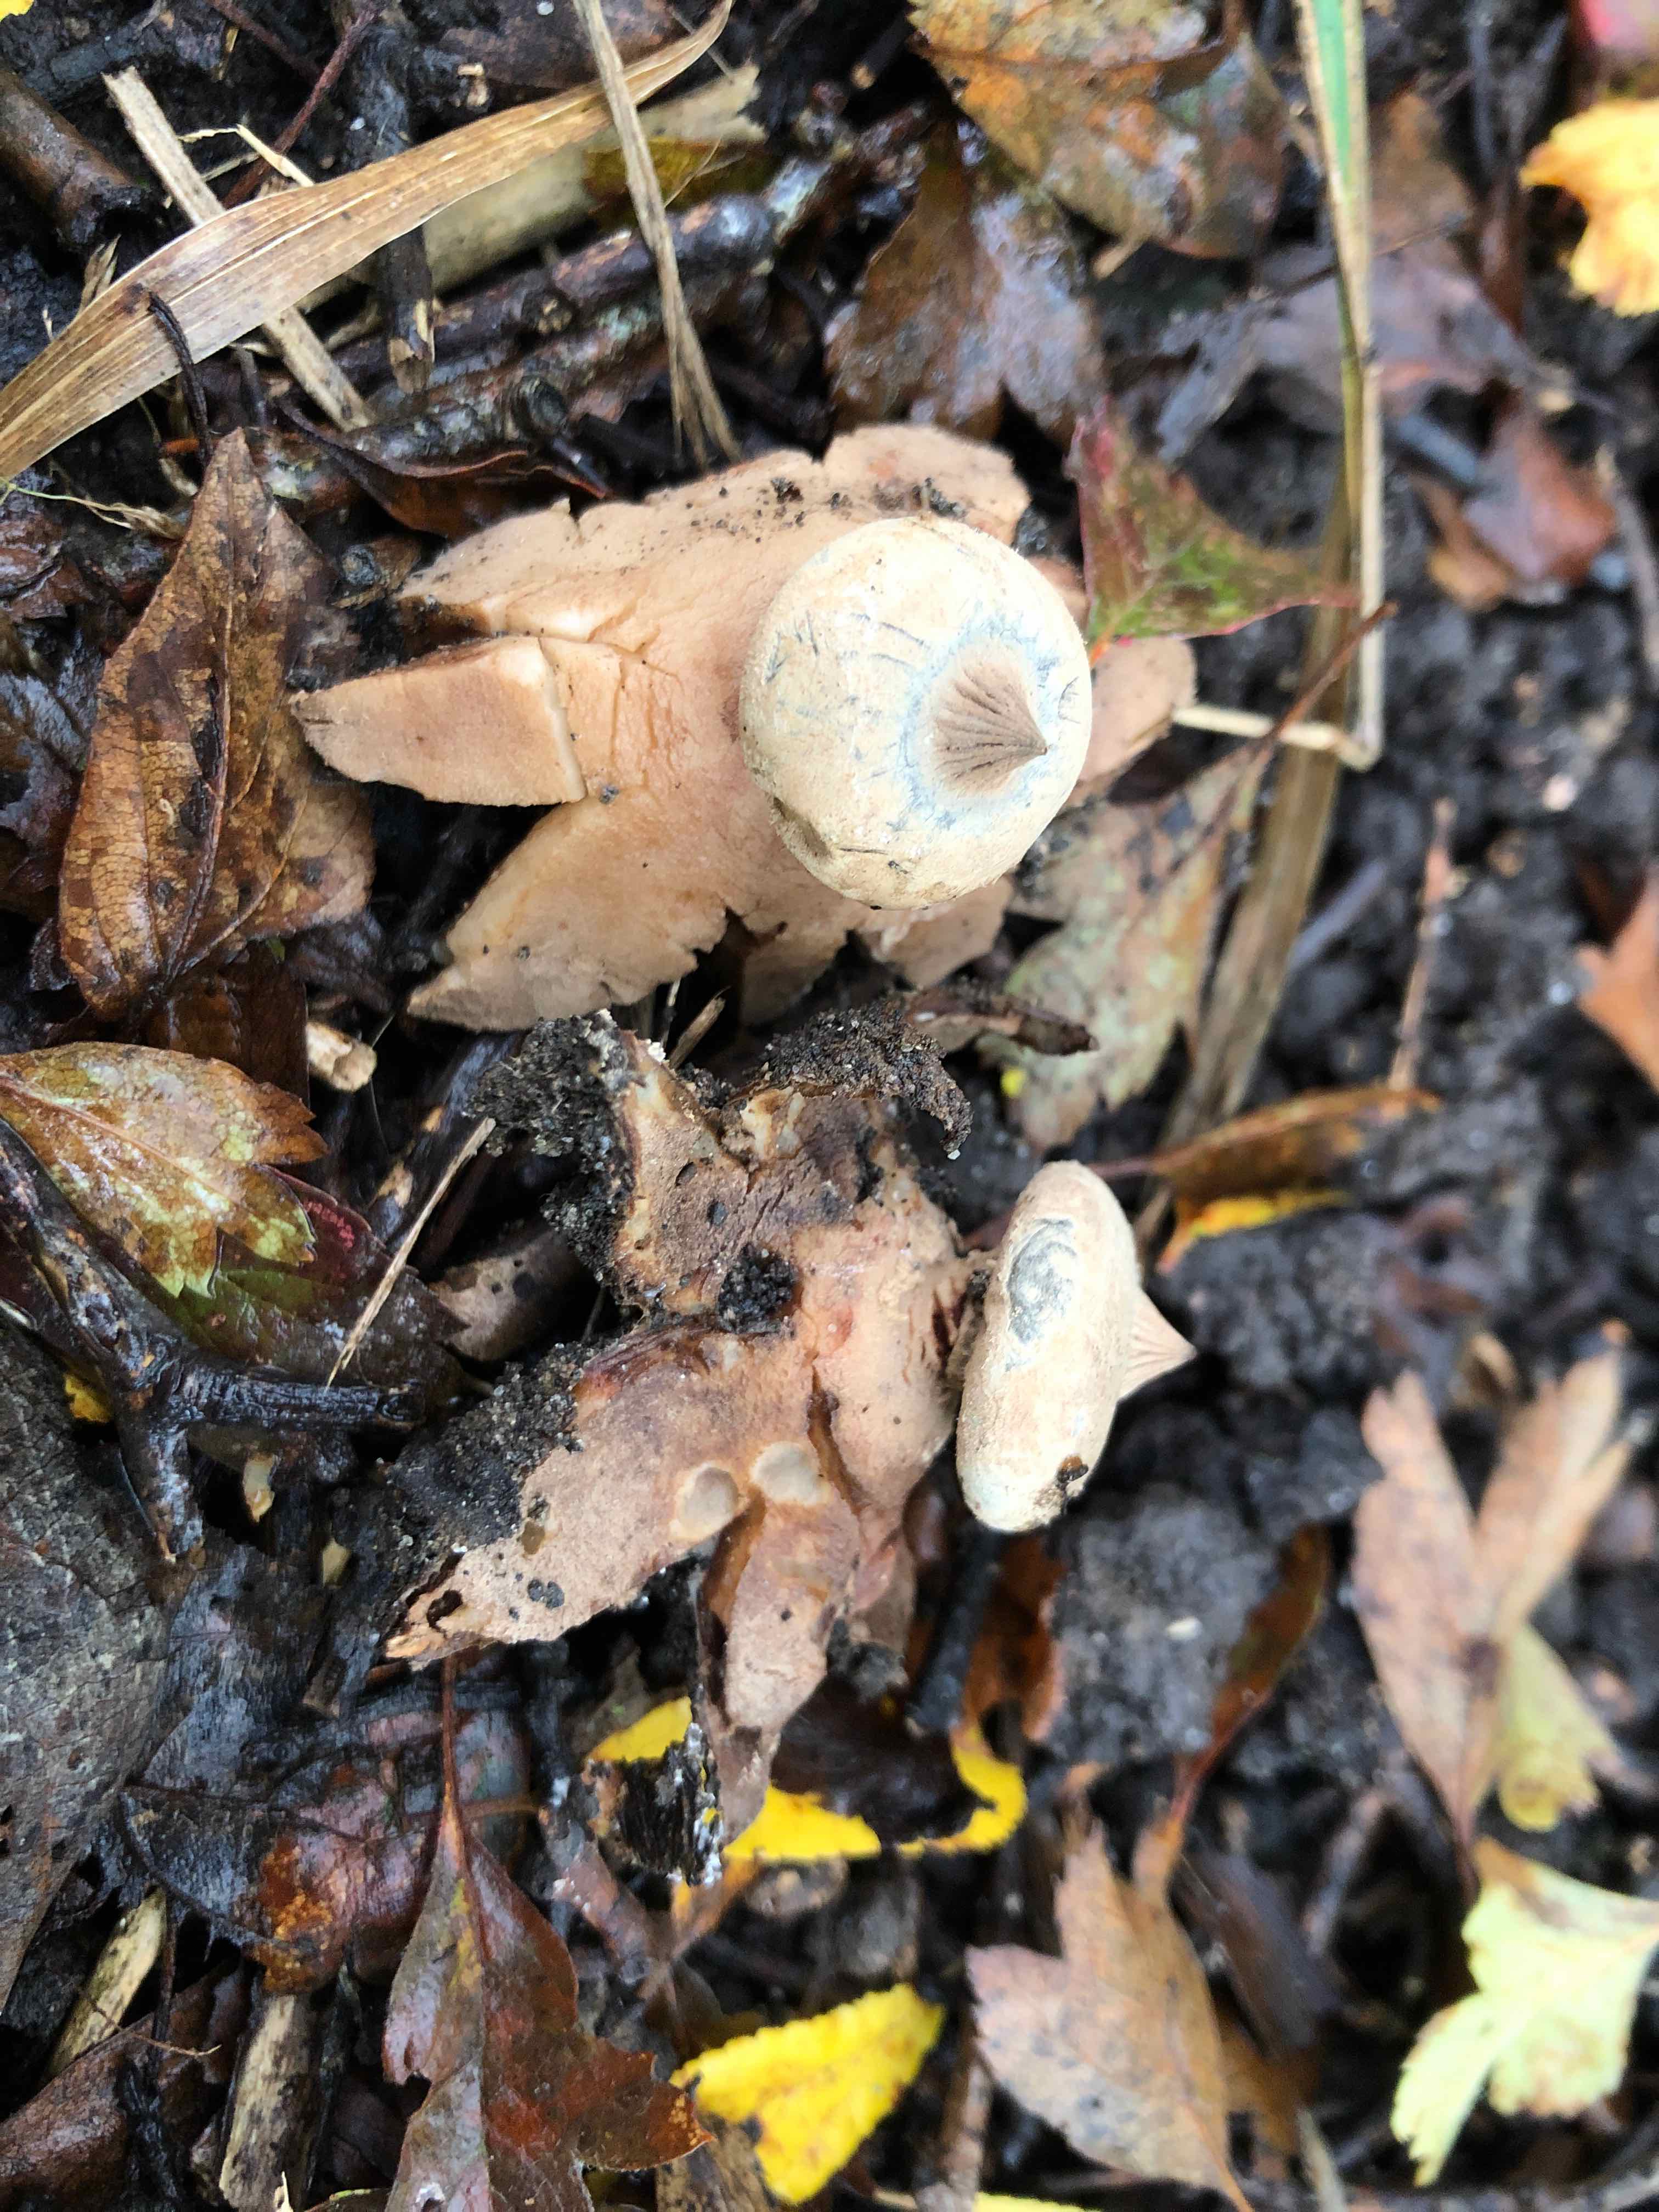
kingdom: Fungi
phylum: Basidiomycota
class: Agaricomycetes
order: Geastrales
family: Geastraceae
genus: Geastrum
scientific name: Geastrum striatum
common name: krave-stjernebold
